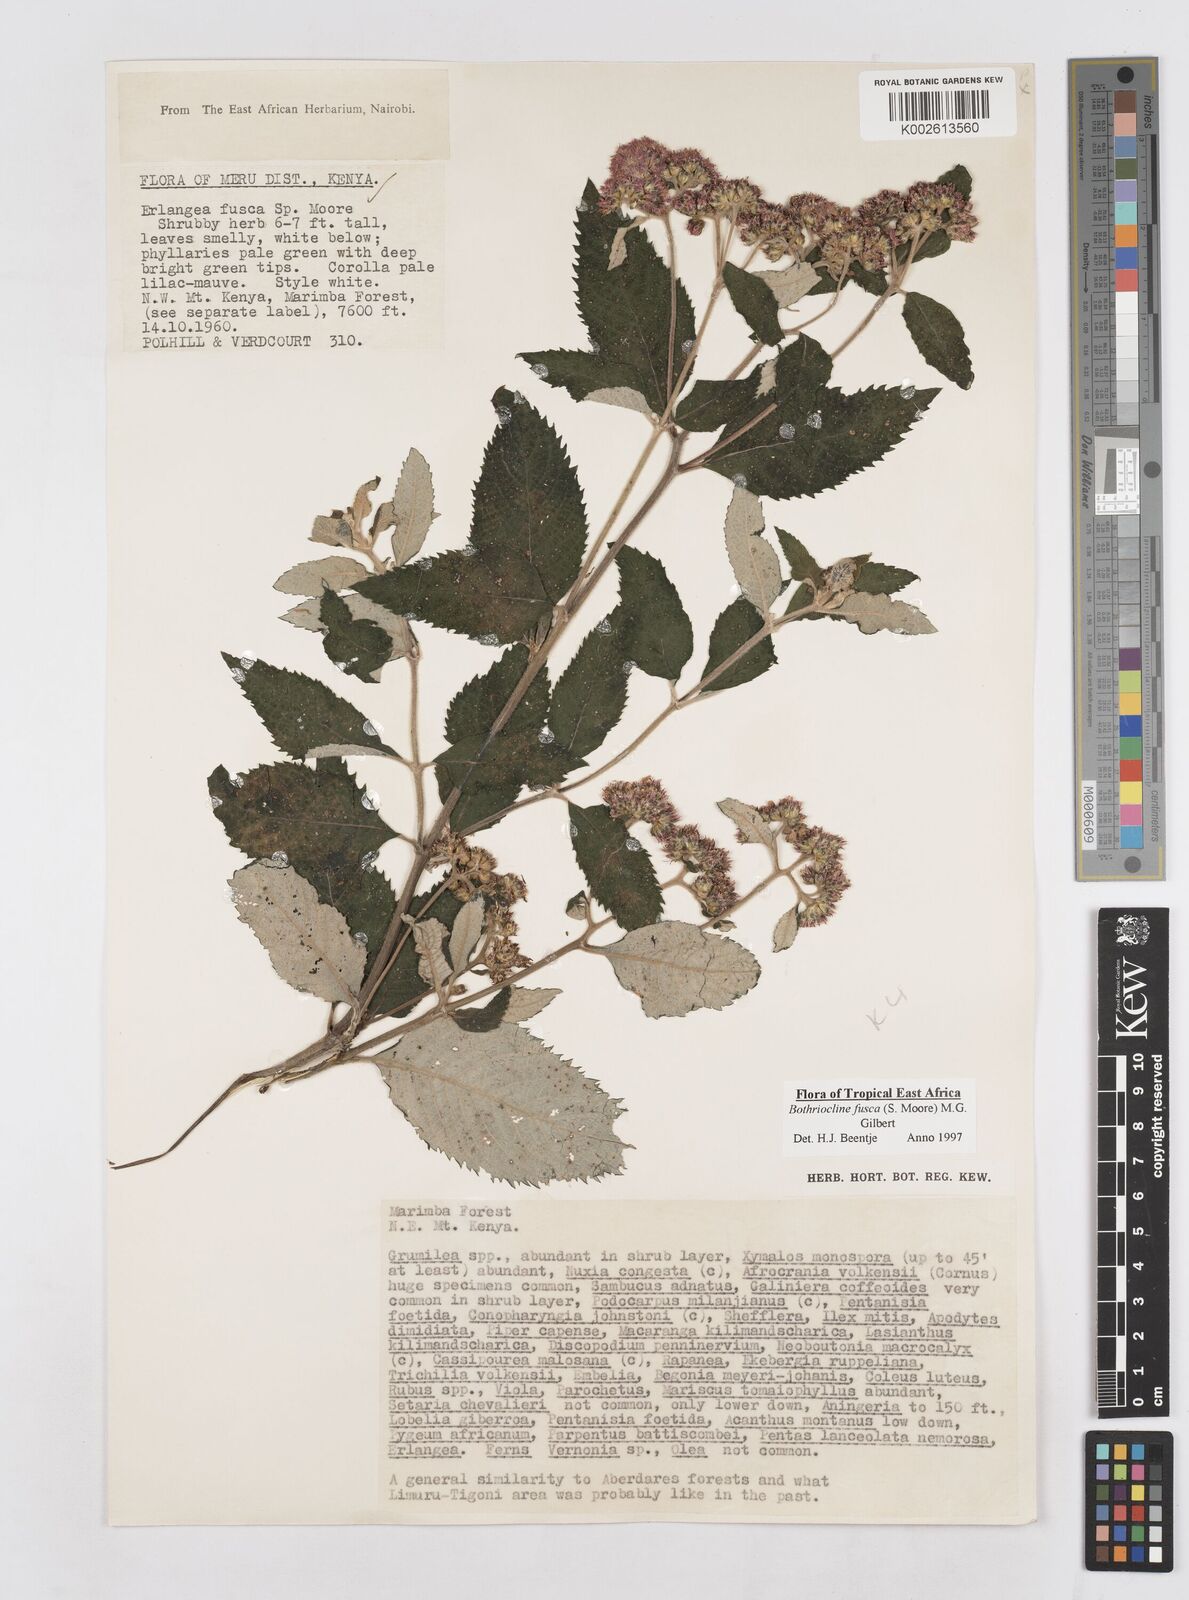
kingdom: Plantae
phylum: Tracheophyta
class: Magnoliopsida
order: Asterales
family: Asteraceae
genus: Bothriocline
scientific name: Bothriocline fusca
